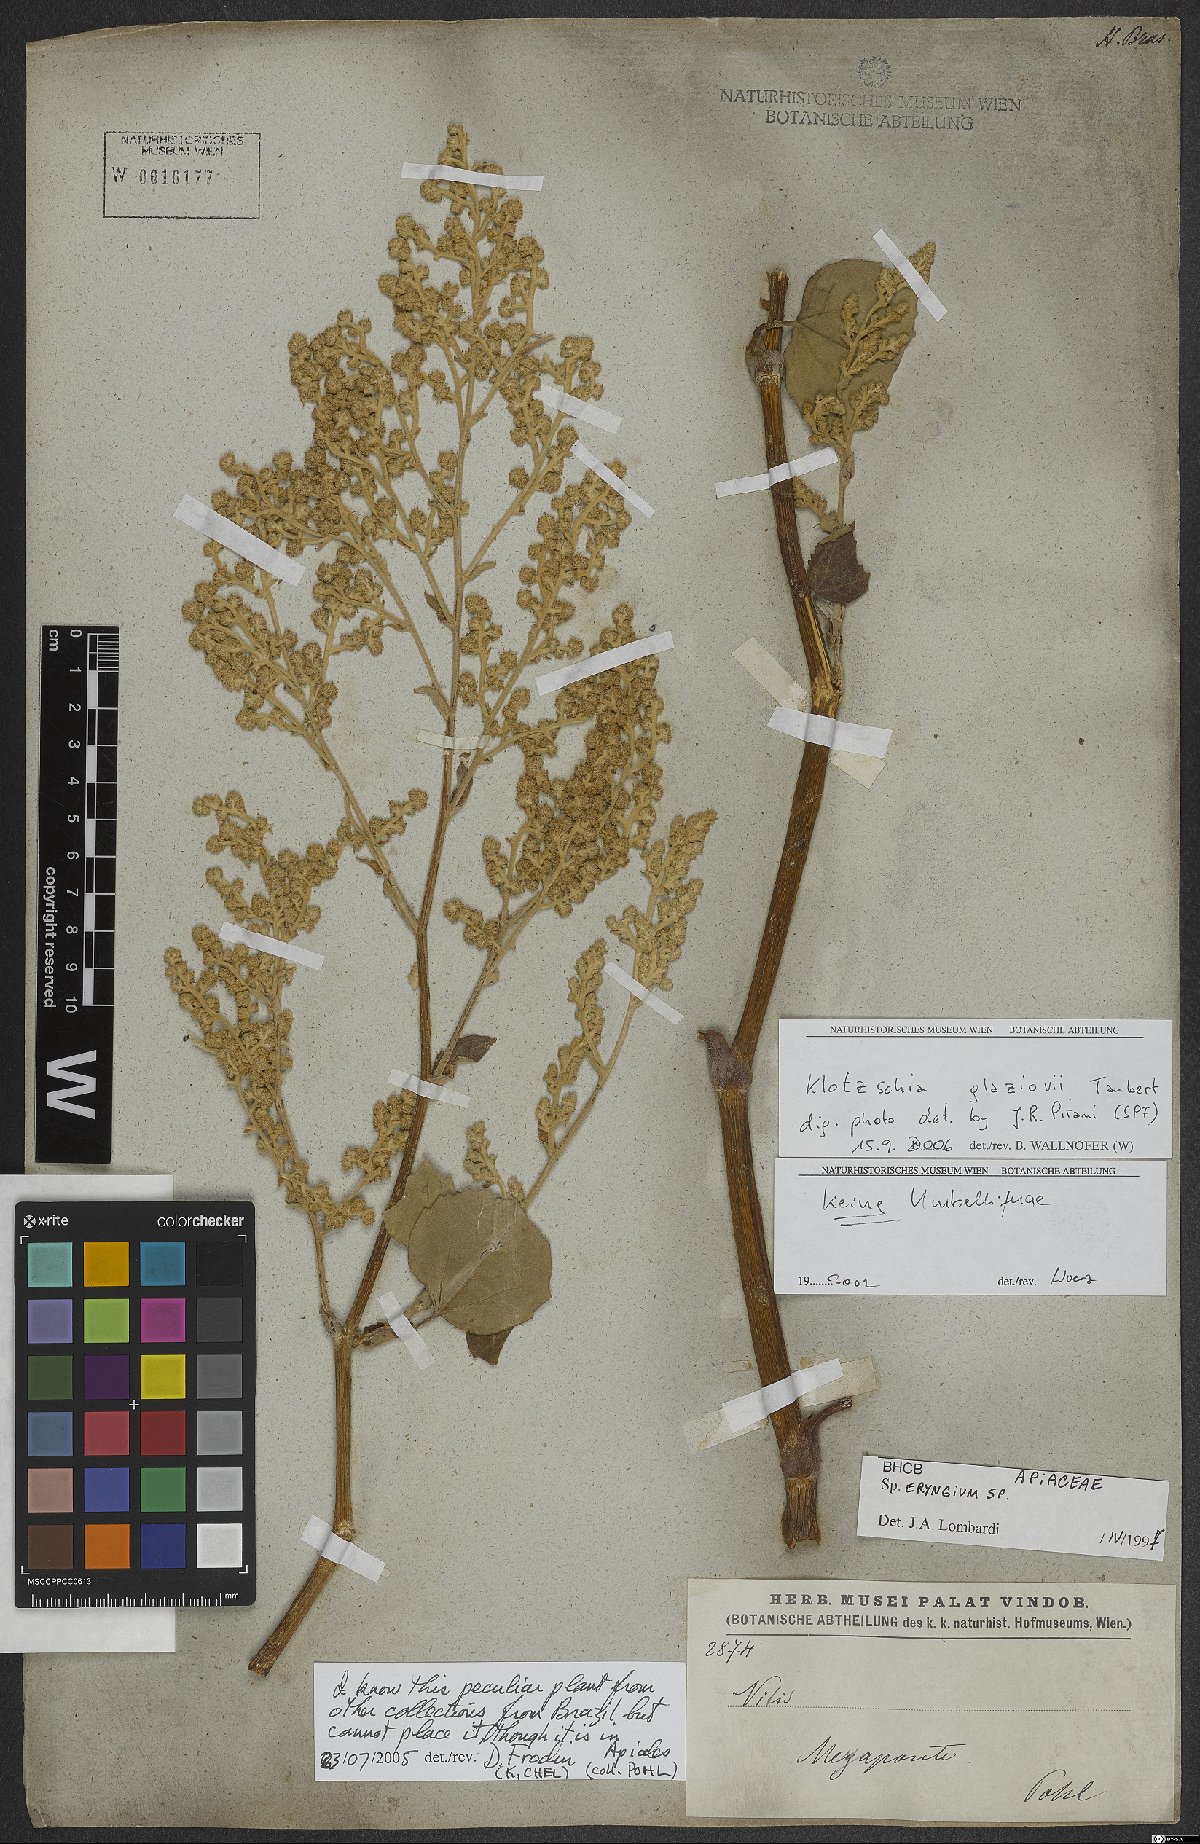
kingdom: Plantae
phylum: Tracheophyta
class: Magnoliopsida
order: Apiales
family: Apiaceae
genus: Klotzschia
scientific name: Klotzschia glaziovii
